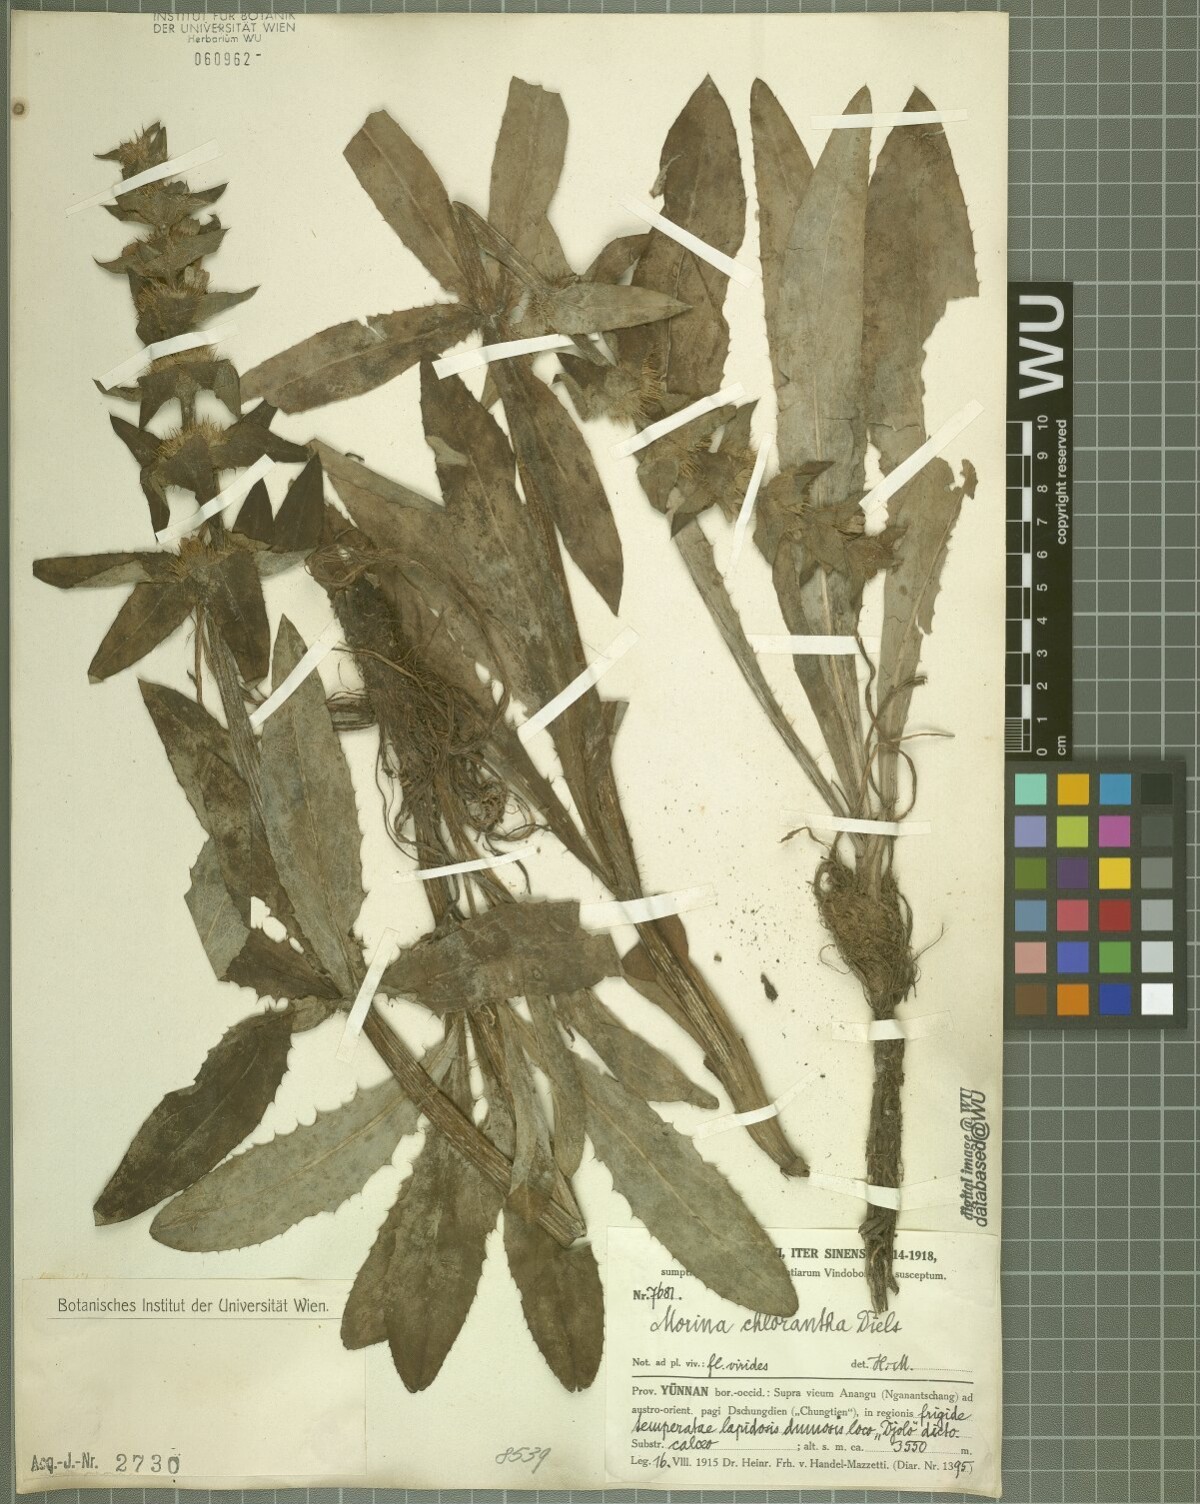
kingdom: Plantae
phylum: Tracheophyta
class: Magnoliopsida
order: Dipsacales
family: Caprifoliaceae
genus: Cryptothladia
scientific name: Cryptothladia chlorantha
